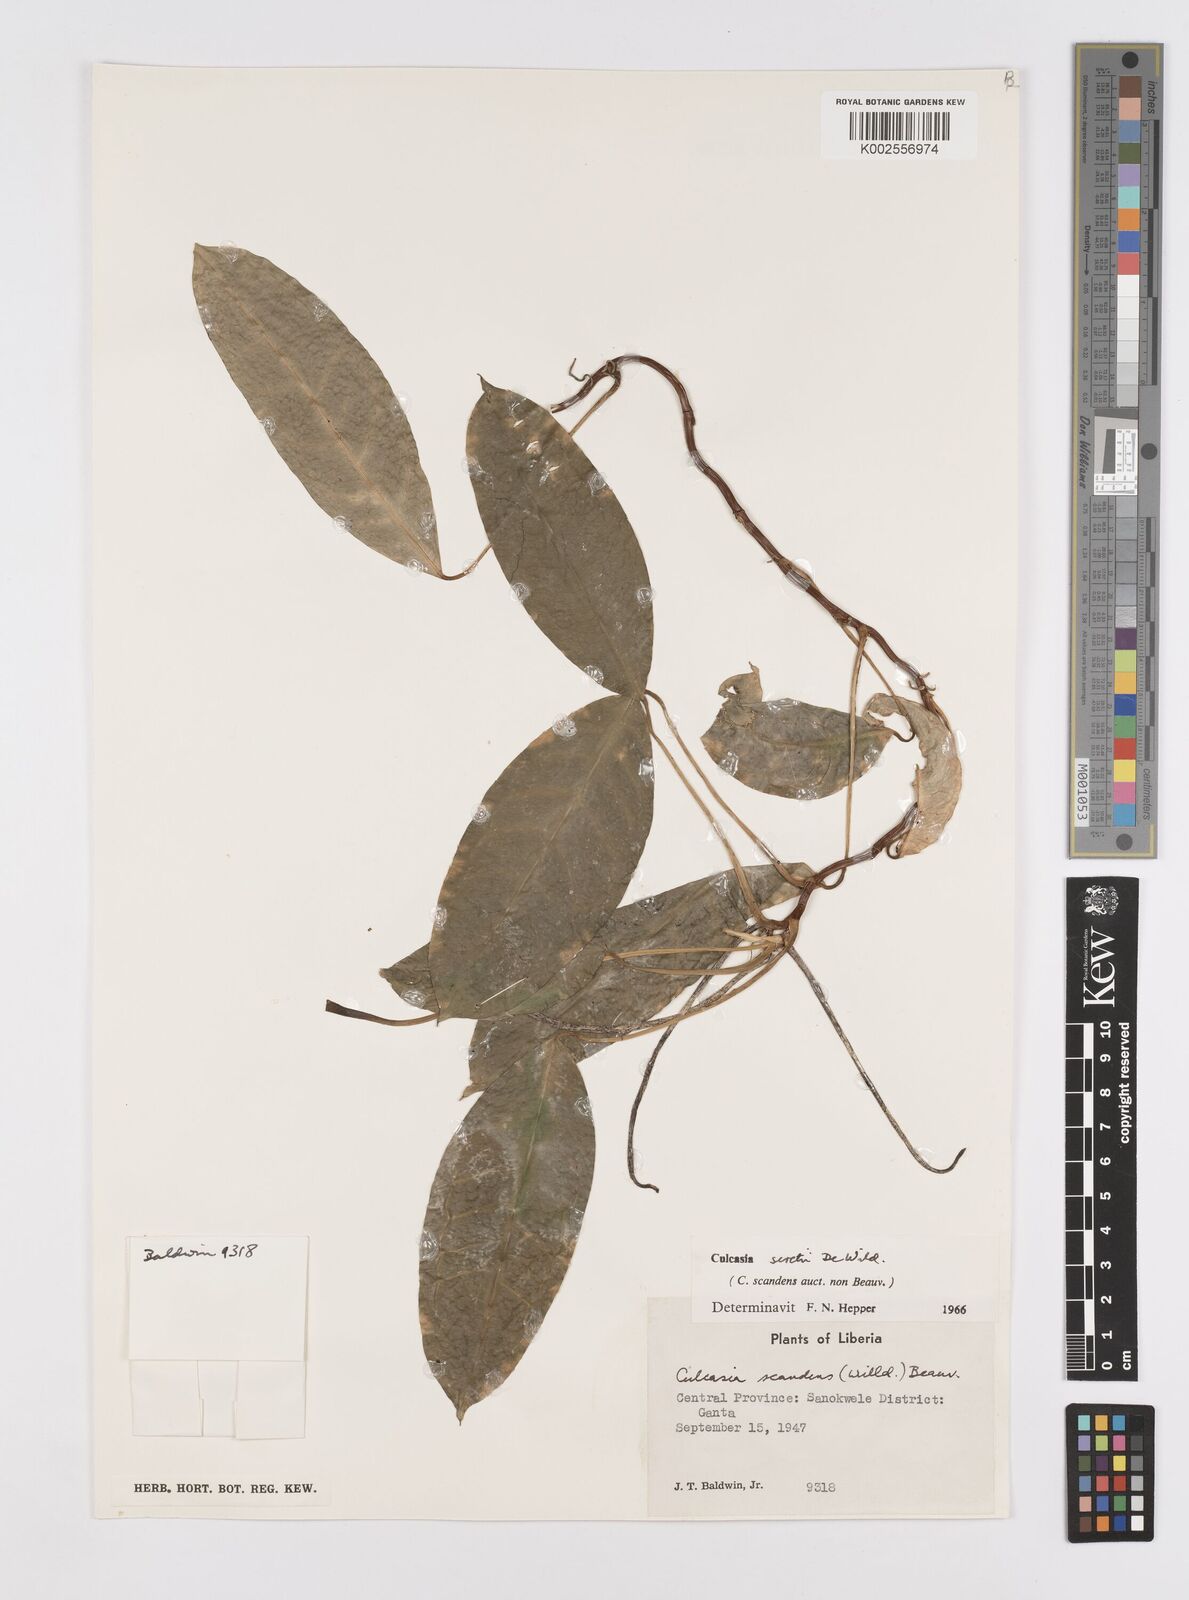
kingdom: Plantae
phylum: Tracheophyta
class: Liliopsida
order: Alismatales
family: Araceae
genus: Culcasia
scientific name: Culcasia seretii
